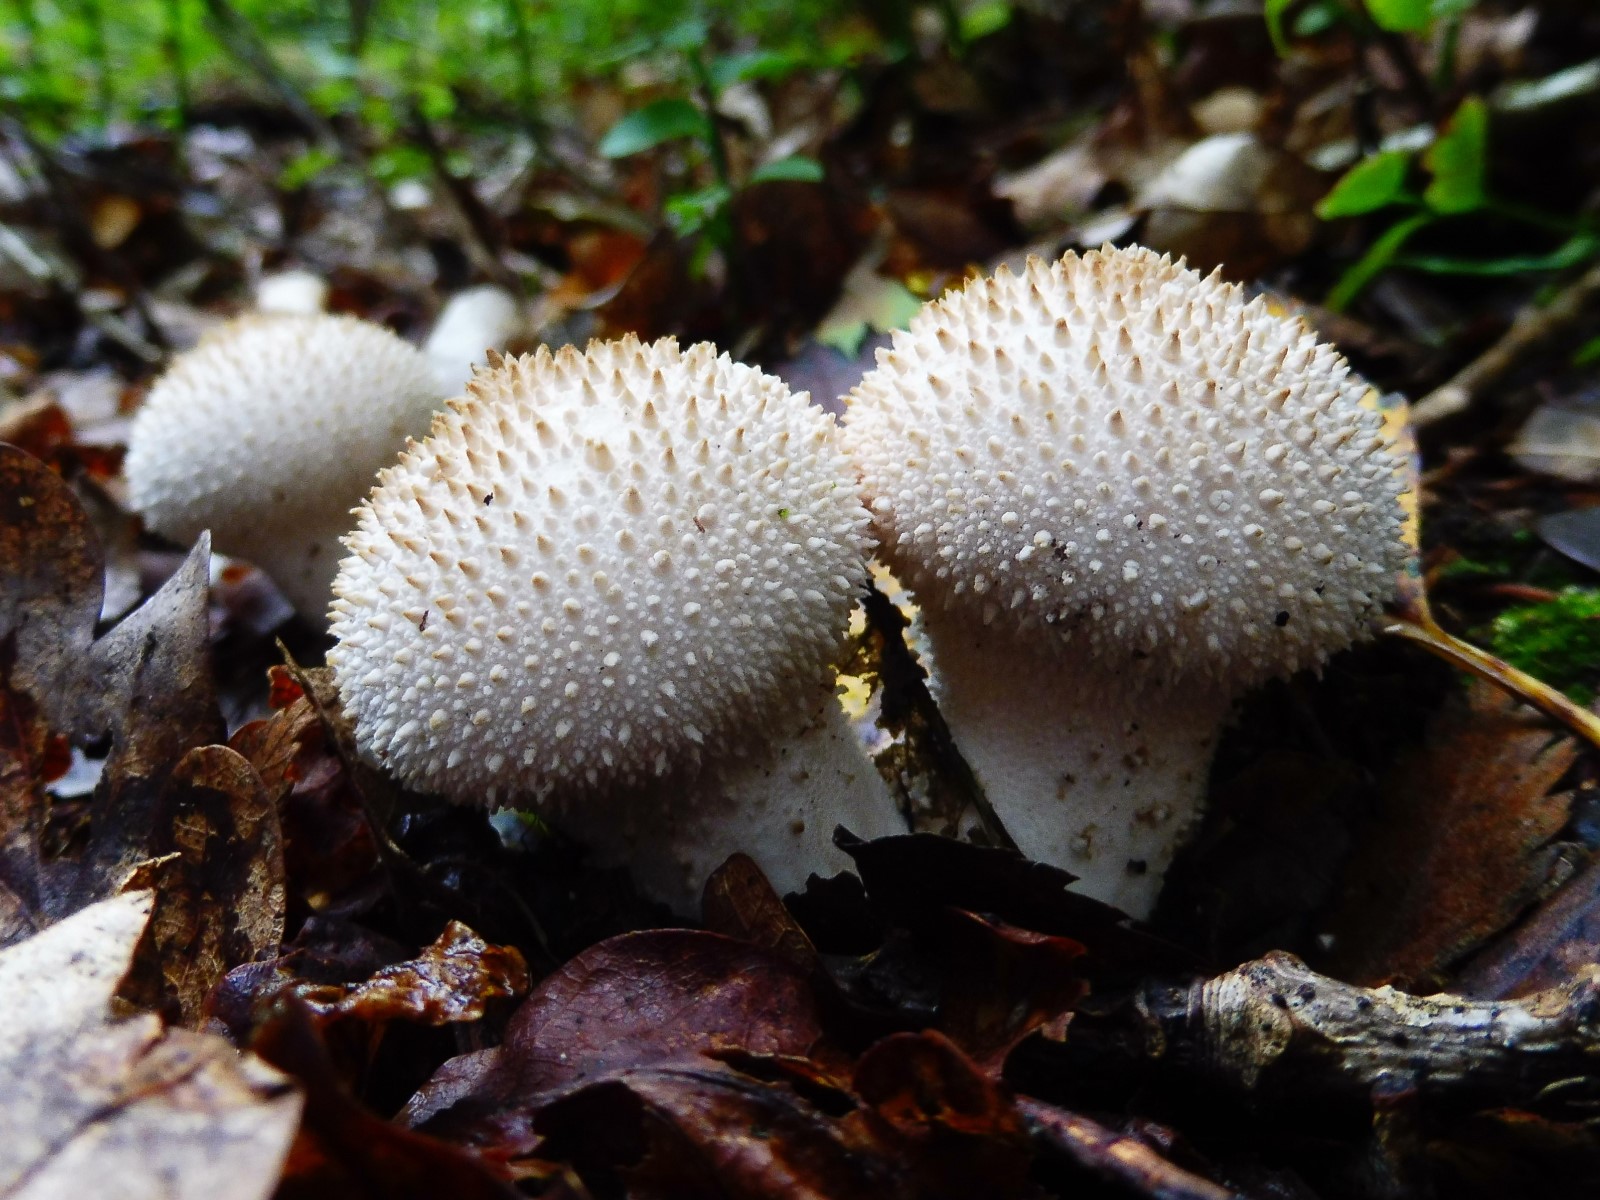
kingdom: Fungi
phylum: Basidiomycota
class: Agaricomycetes
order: Agaricales
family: Lycoperdaceae
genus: Lycoperdon
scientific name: Lycoperdon perlatum
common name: krystal-støvbold
